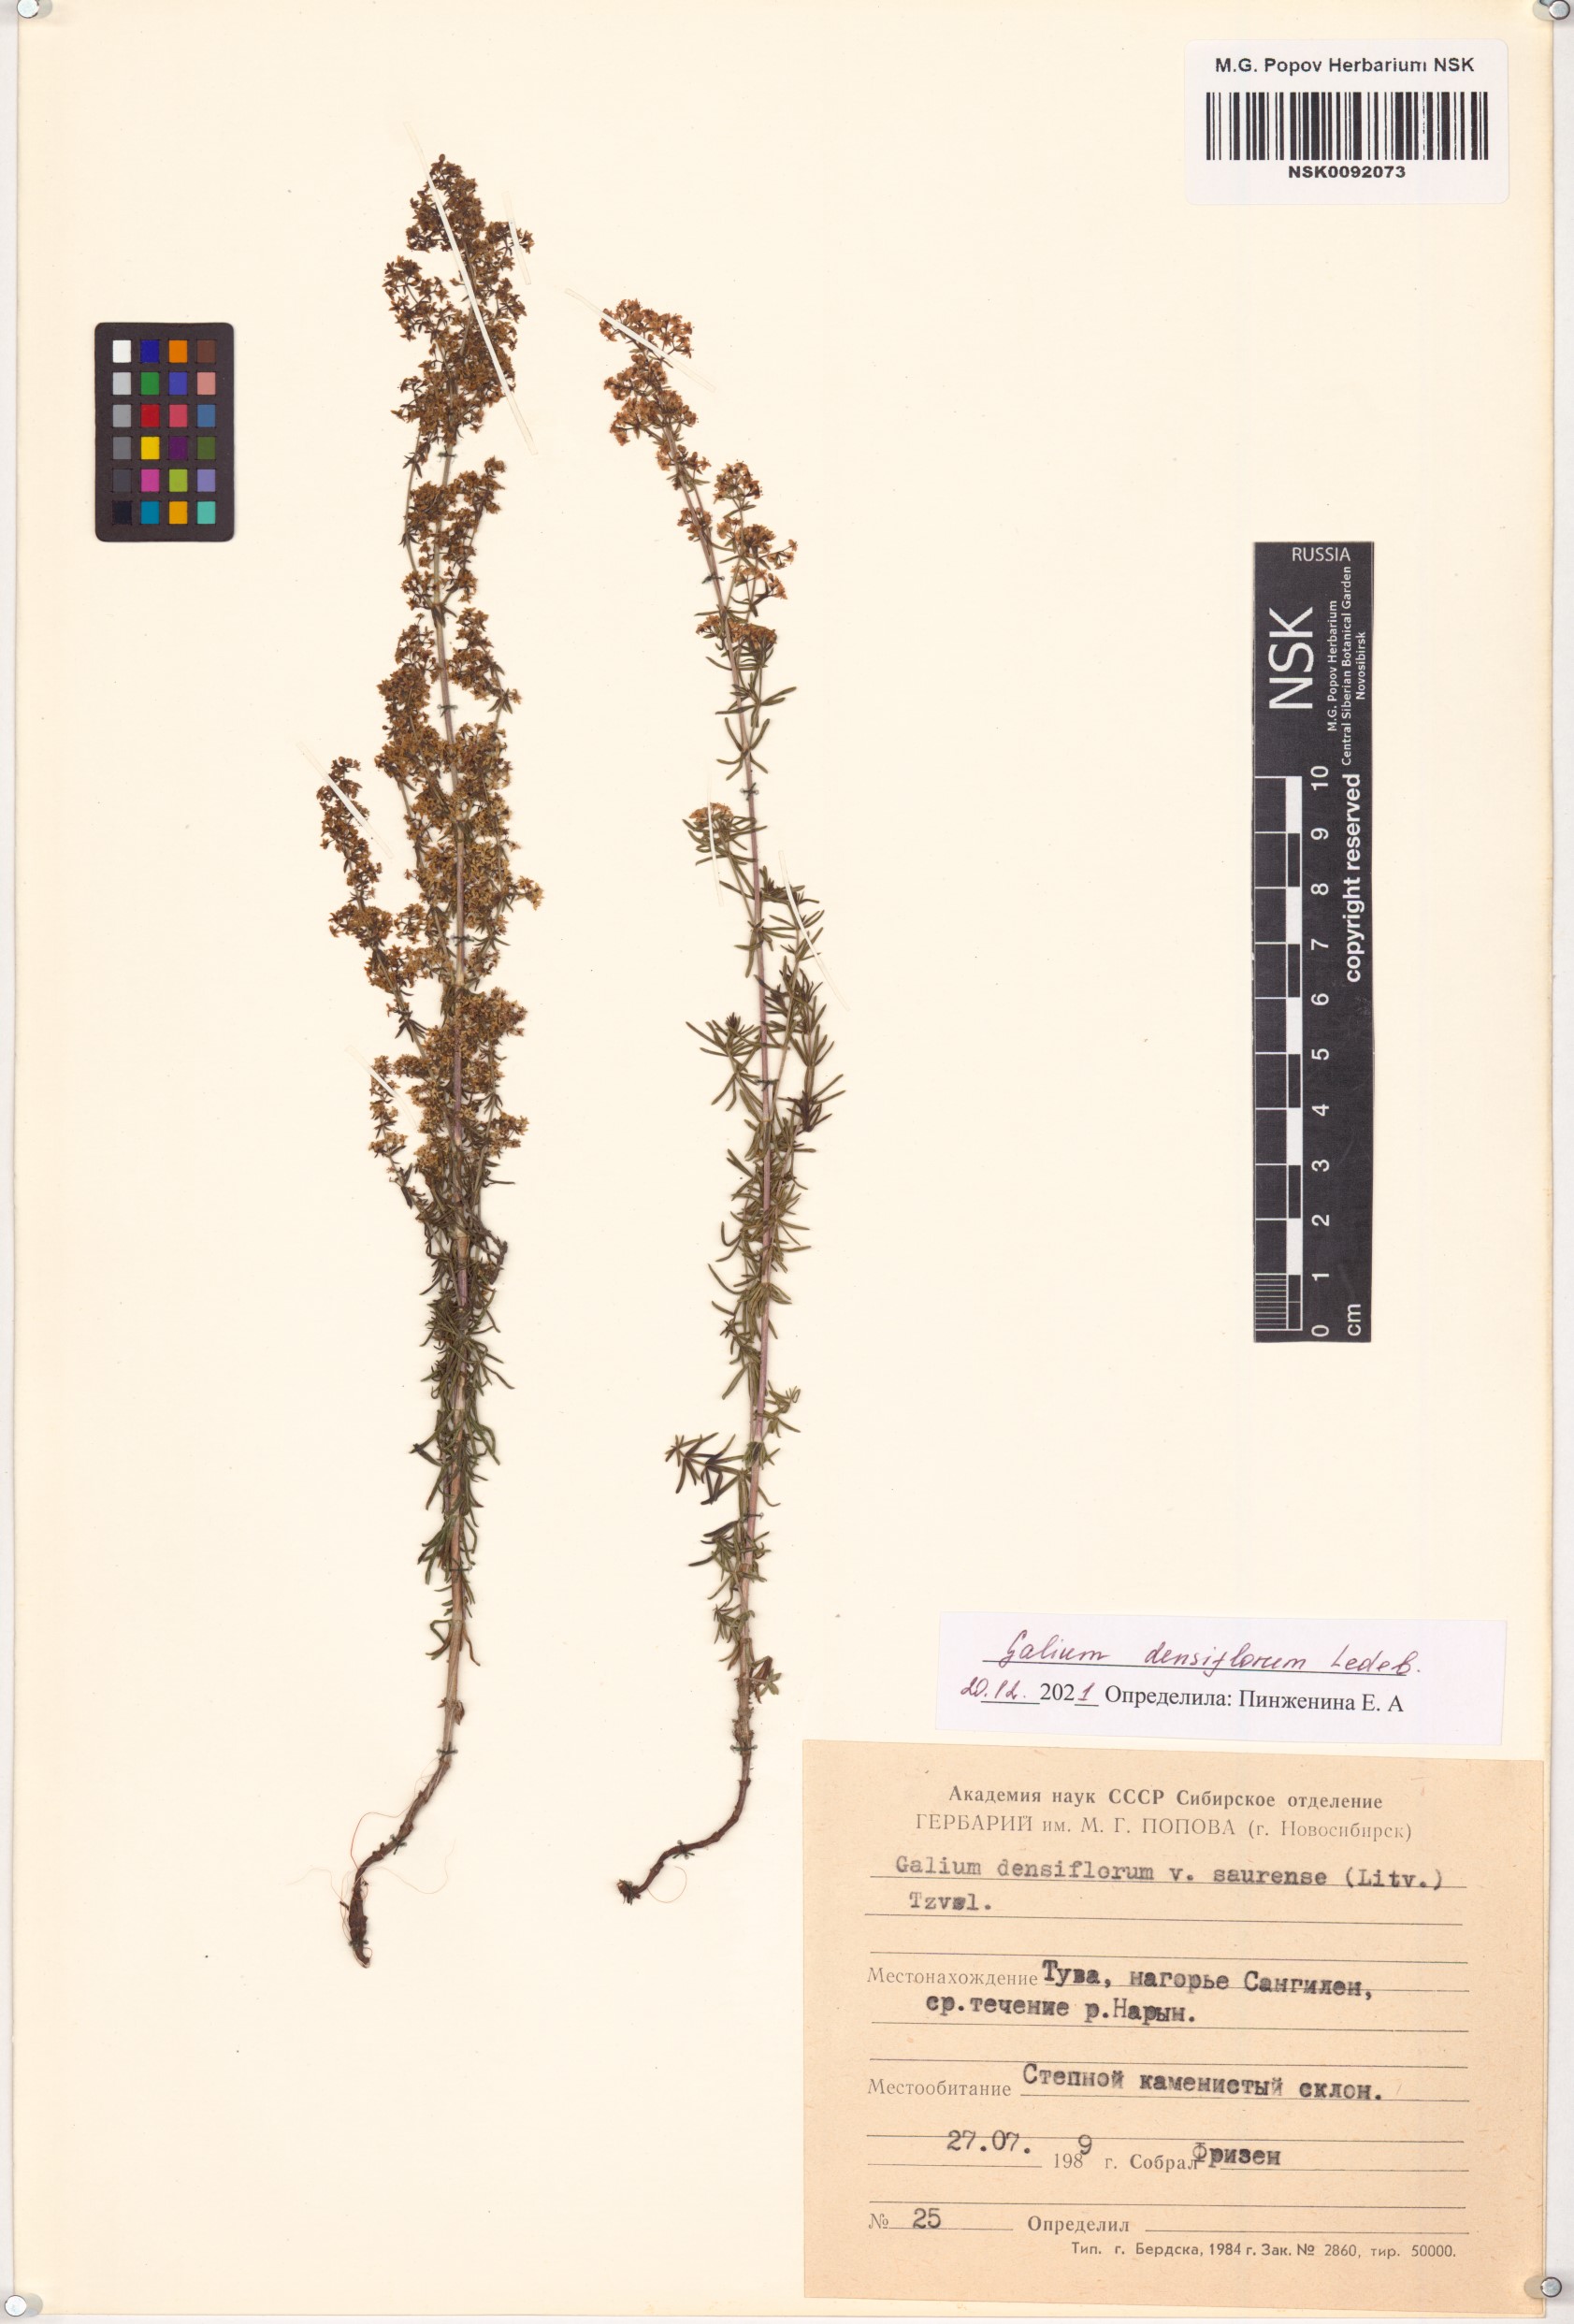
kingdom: Plantae
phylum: Tracheophyta
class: Magnoliopsida
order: Gentianales
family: Rubiaceae
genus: Galium
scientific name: Galium densiflorum
